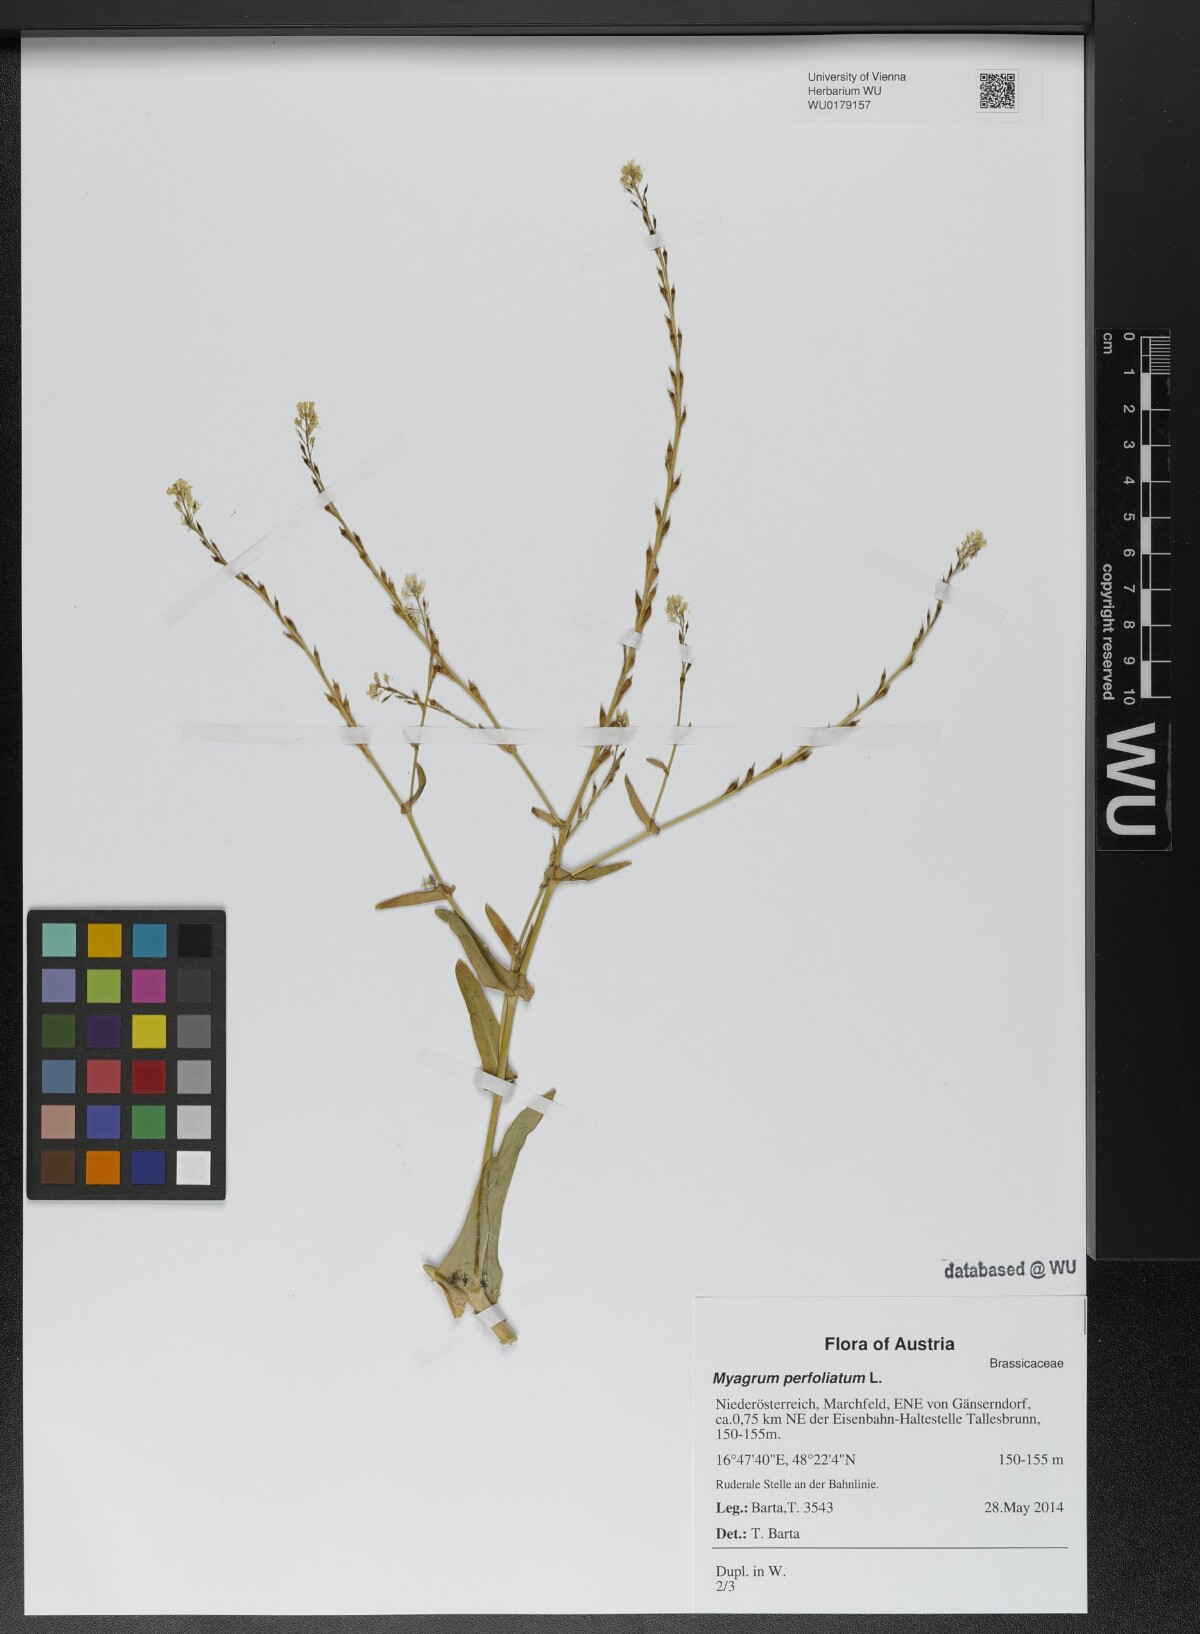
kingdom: Plantae
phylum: Tracheophyta
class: Magnoliopsida
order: Brassicales
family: Brassicaceae
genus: Myagrum
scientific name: Myagrum perfoliatum
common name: Mitre cress
